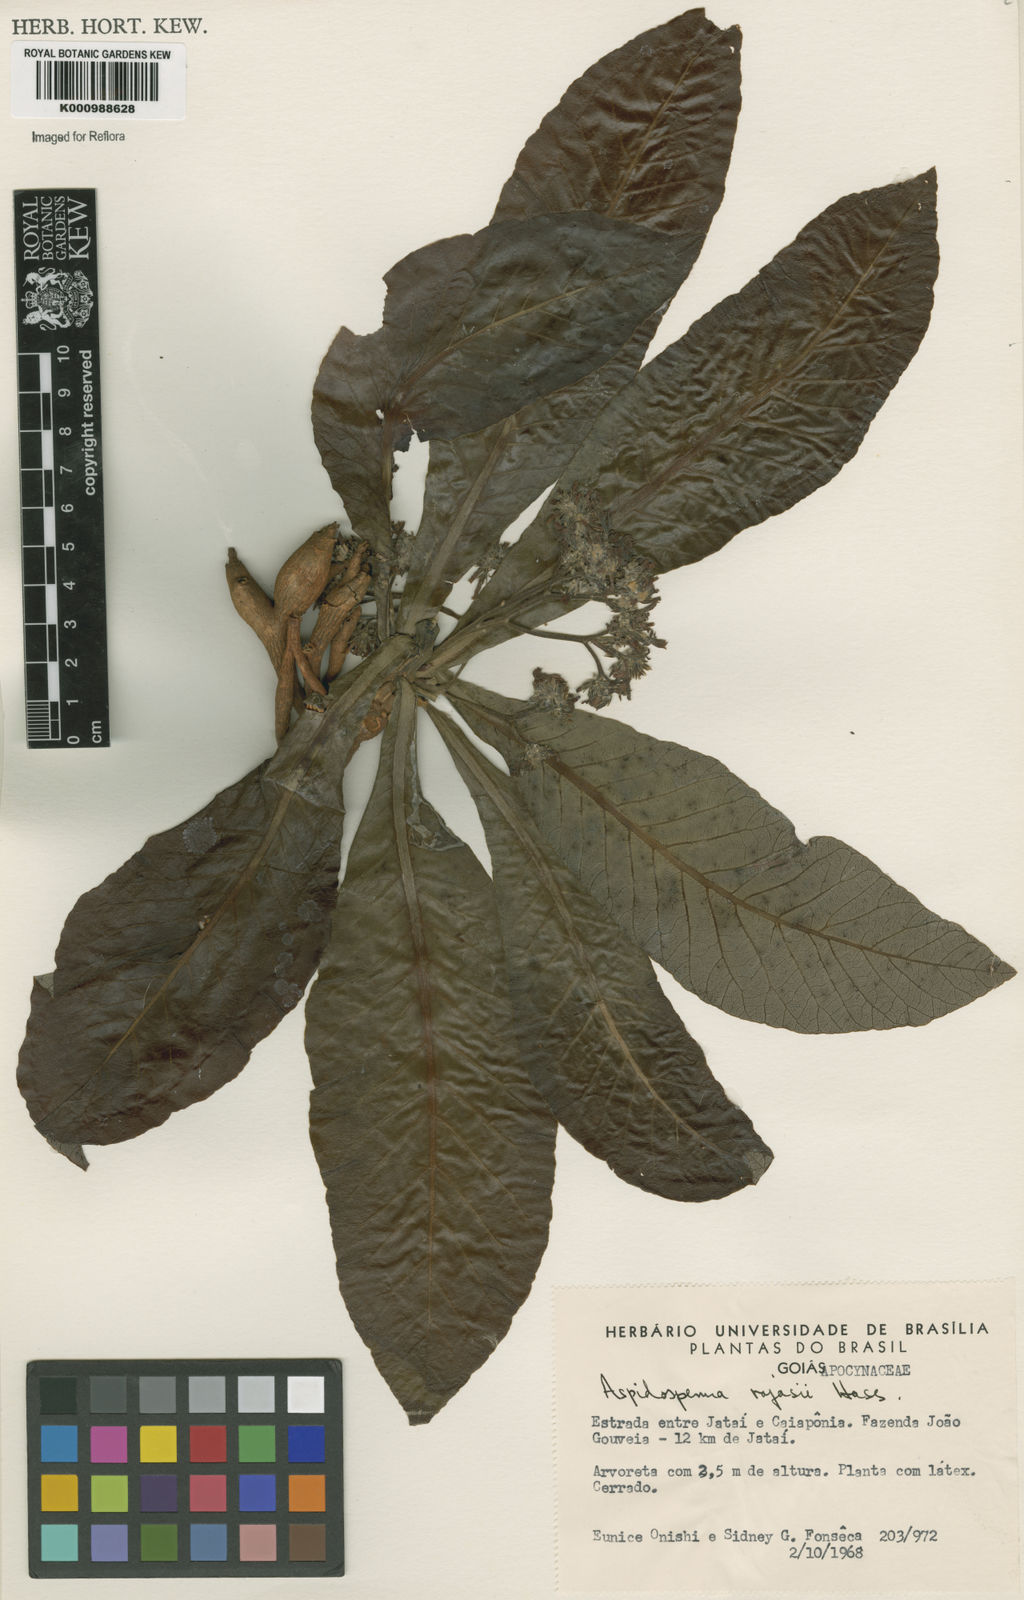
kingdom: Plantae
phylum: Tracheophyta
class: Magnoliopsida
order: Gentianales
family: Apocynaceae
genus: Aspidosperma
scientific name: Aspidosperma tomentosum
